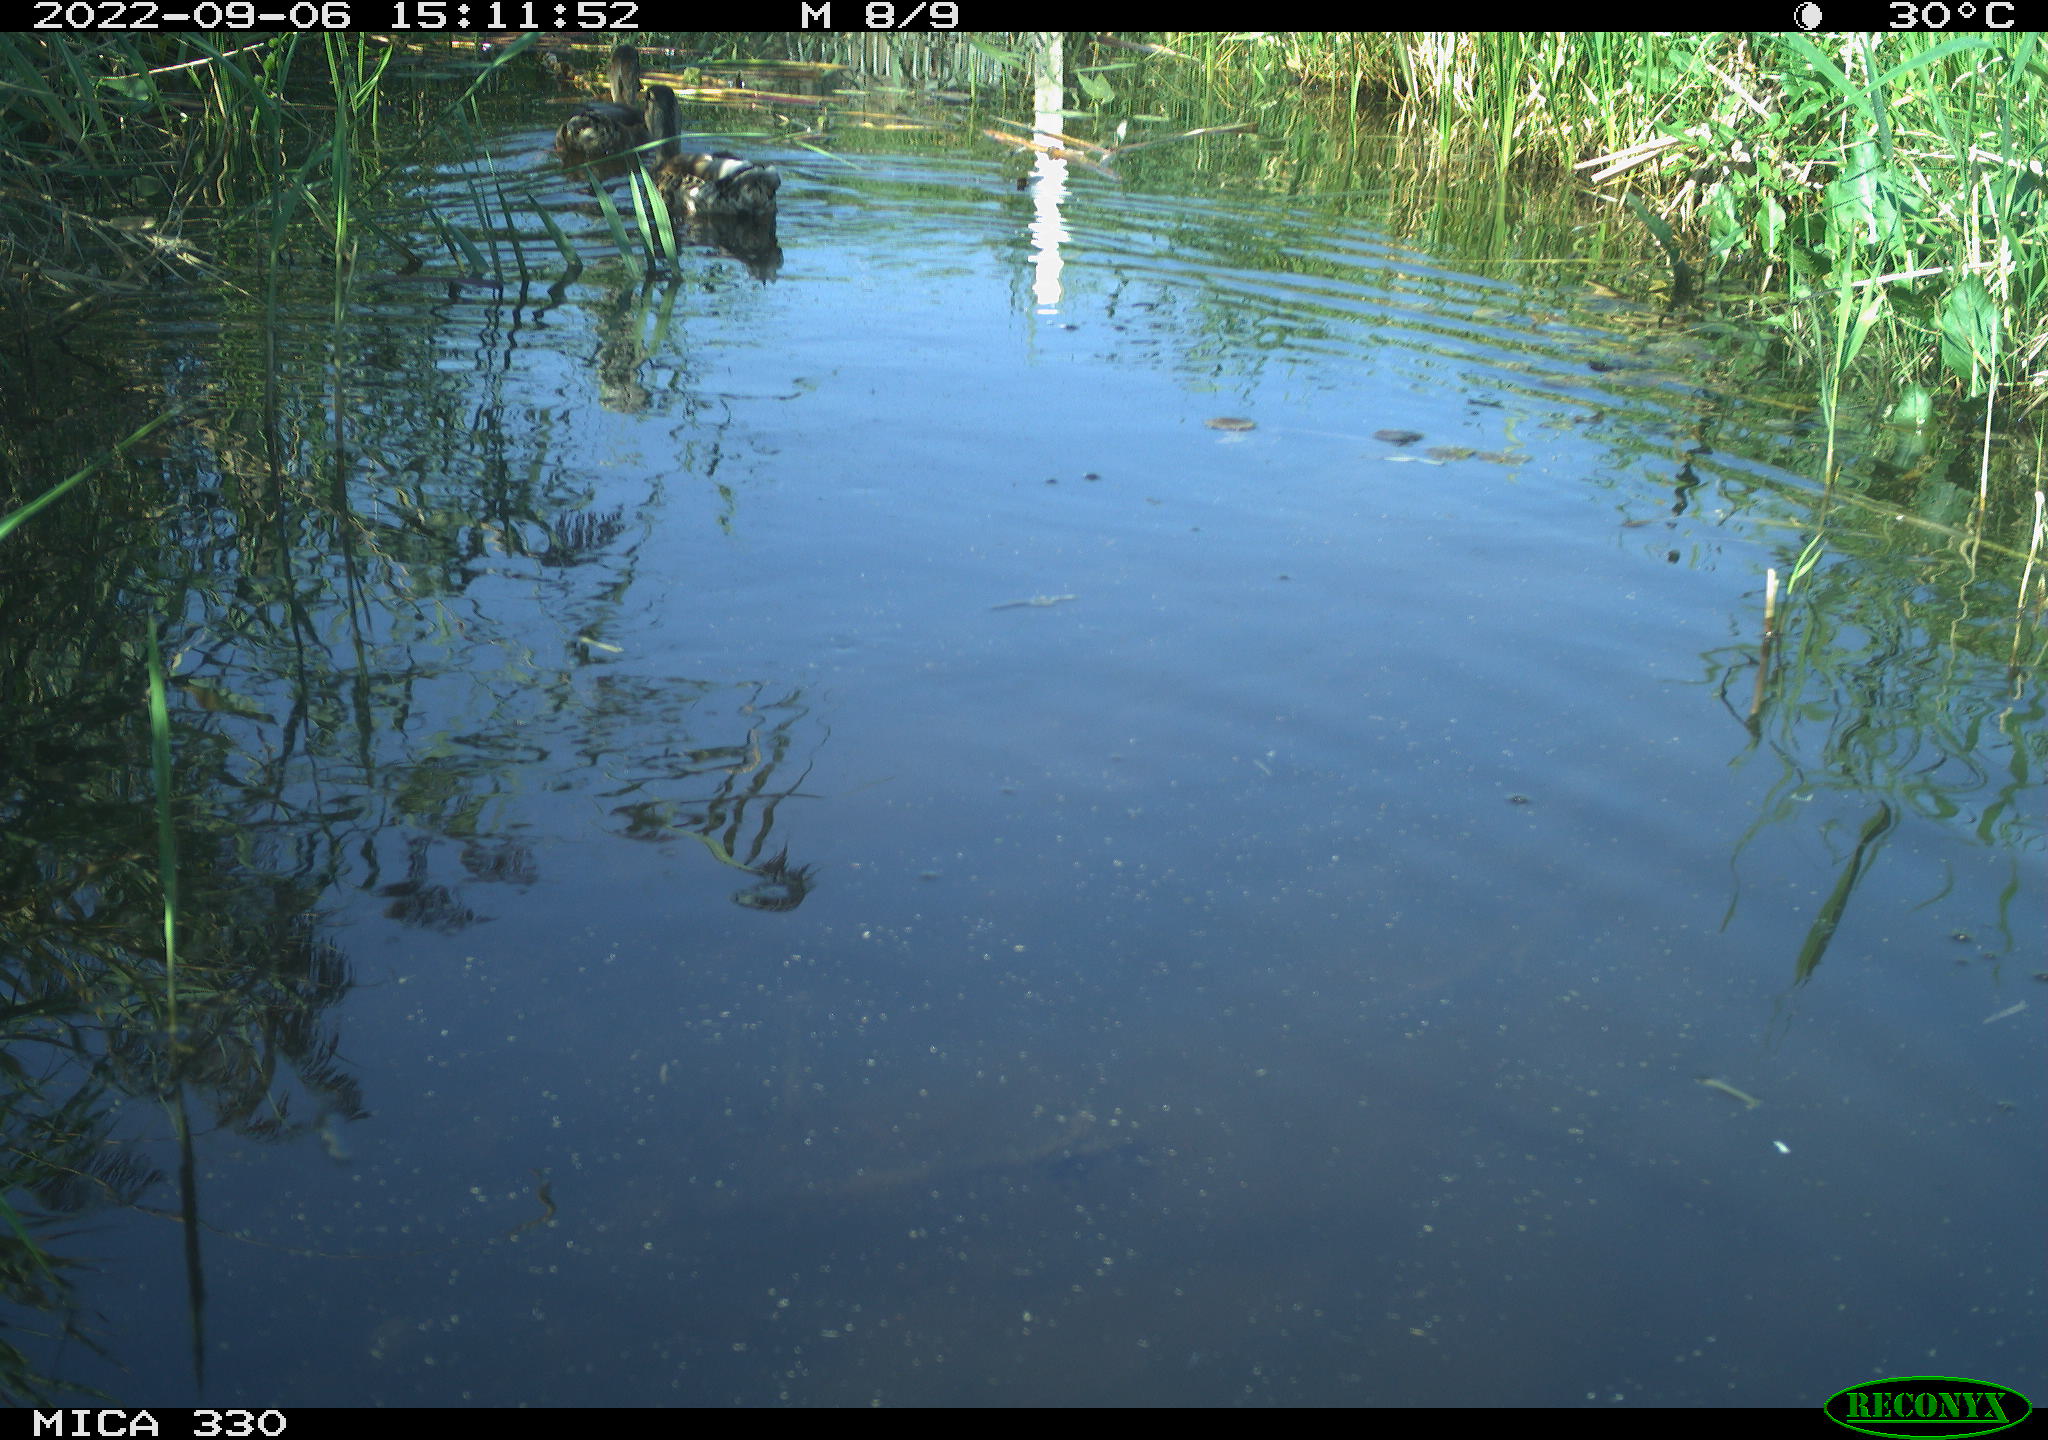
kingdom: Animalia
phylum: Chordata
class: Aves
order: Anseriformes
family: Anatidae
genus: Anas
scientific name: Anas
